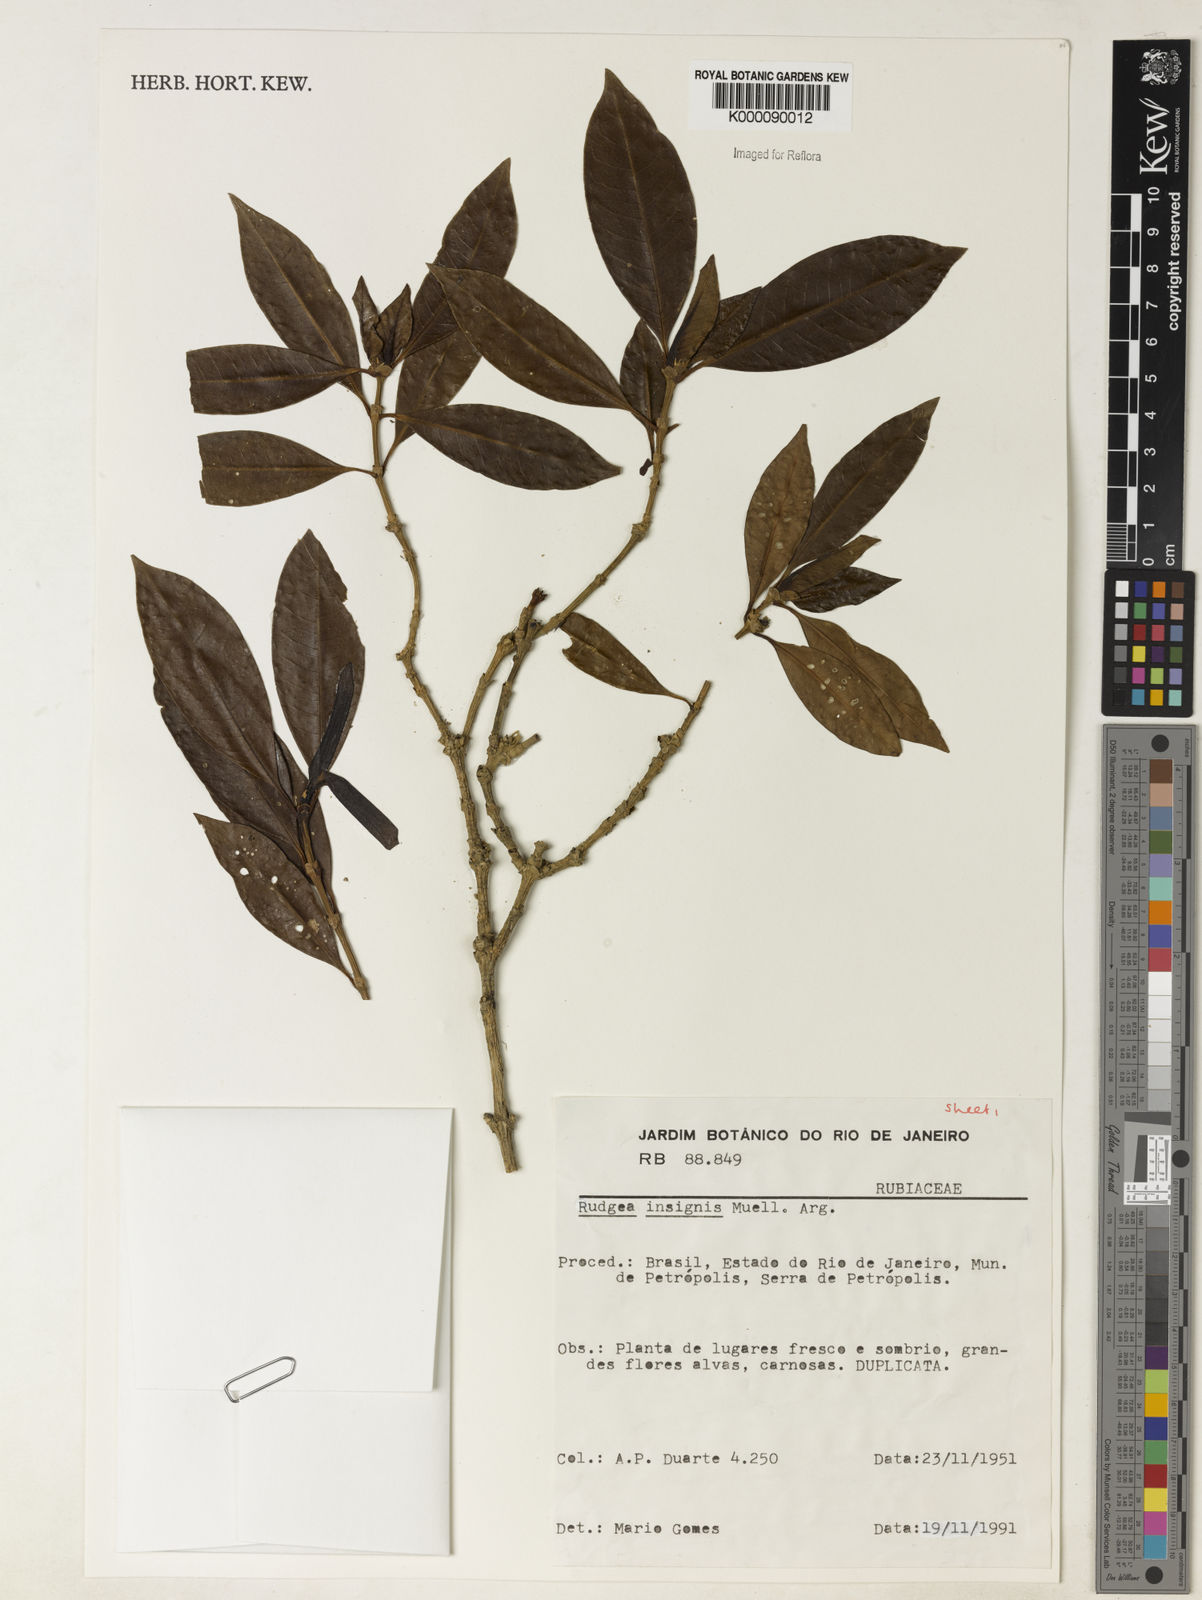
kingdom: Plantae
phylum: Tracheophyta
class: Magnoliopsida
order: Gentianales
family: Rubiaceae
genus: Rudgea
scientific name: Rudgea insignis
